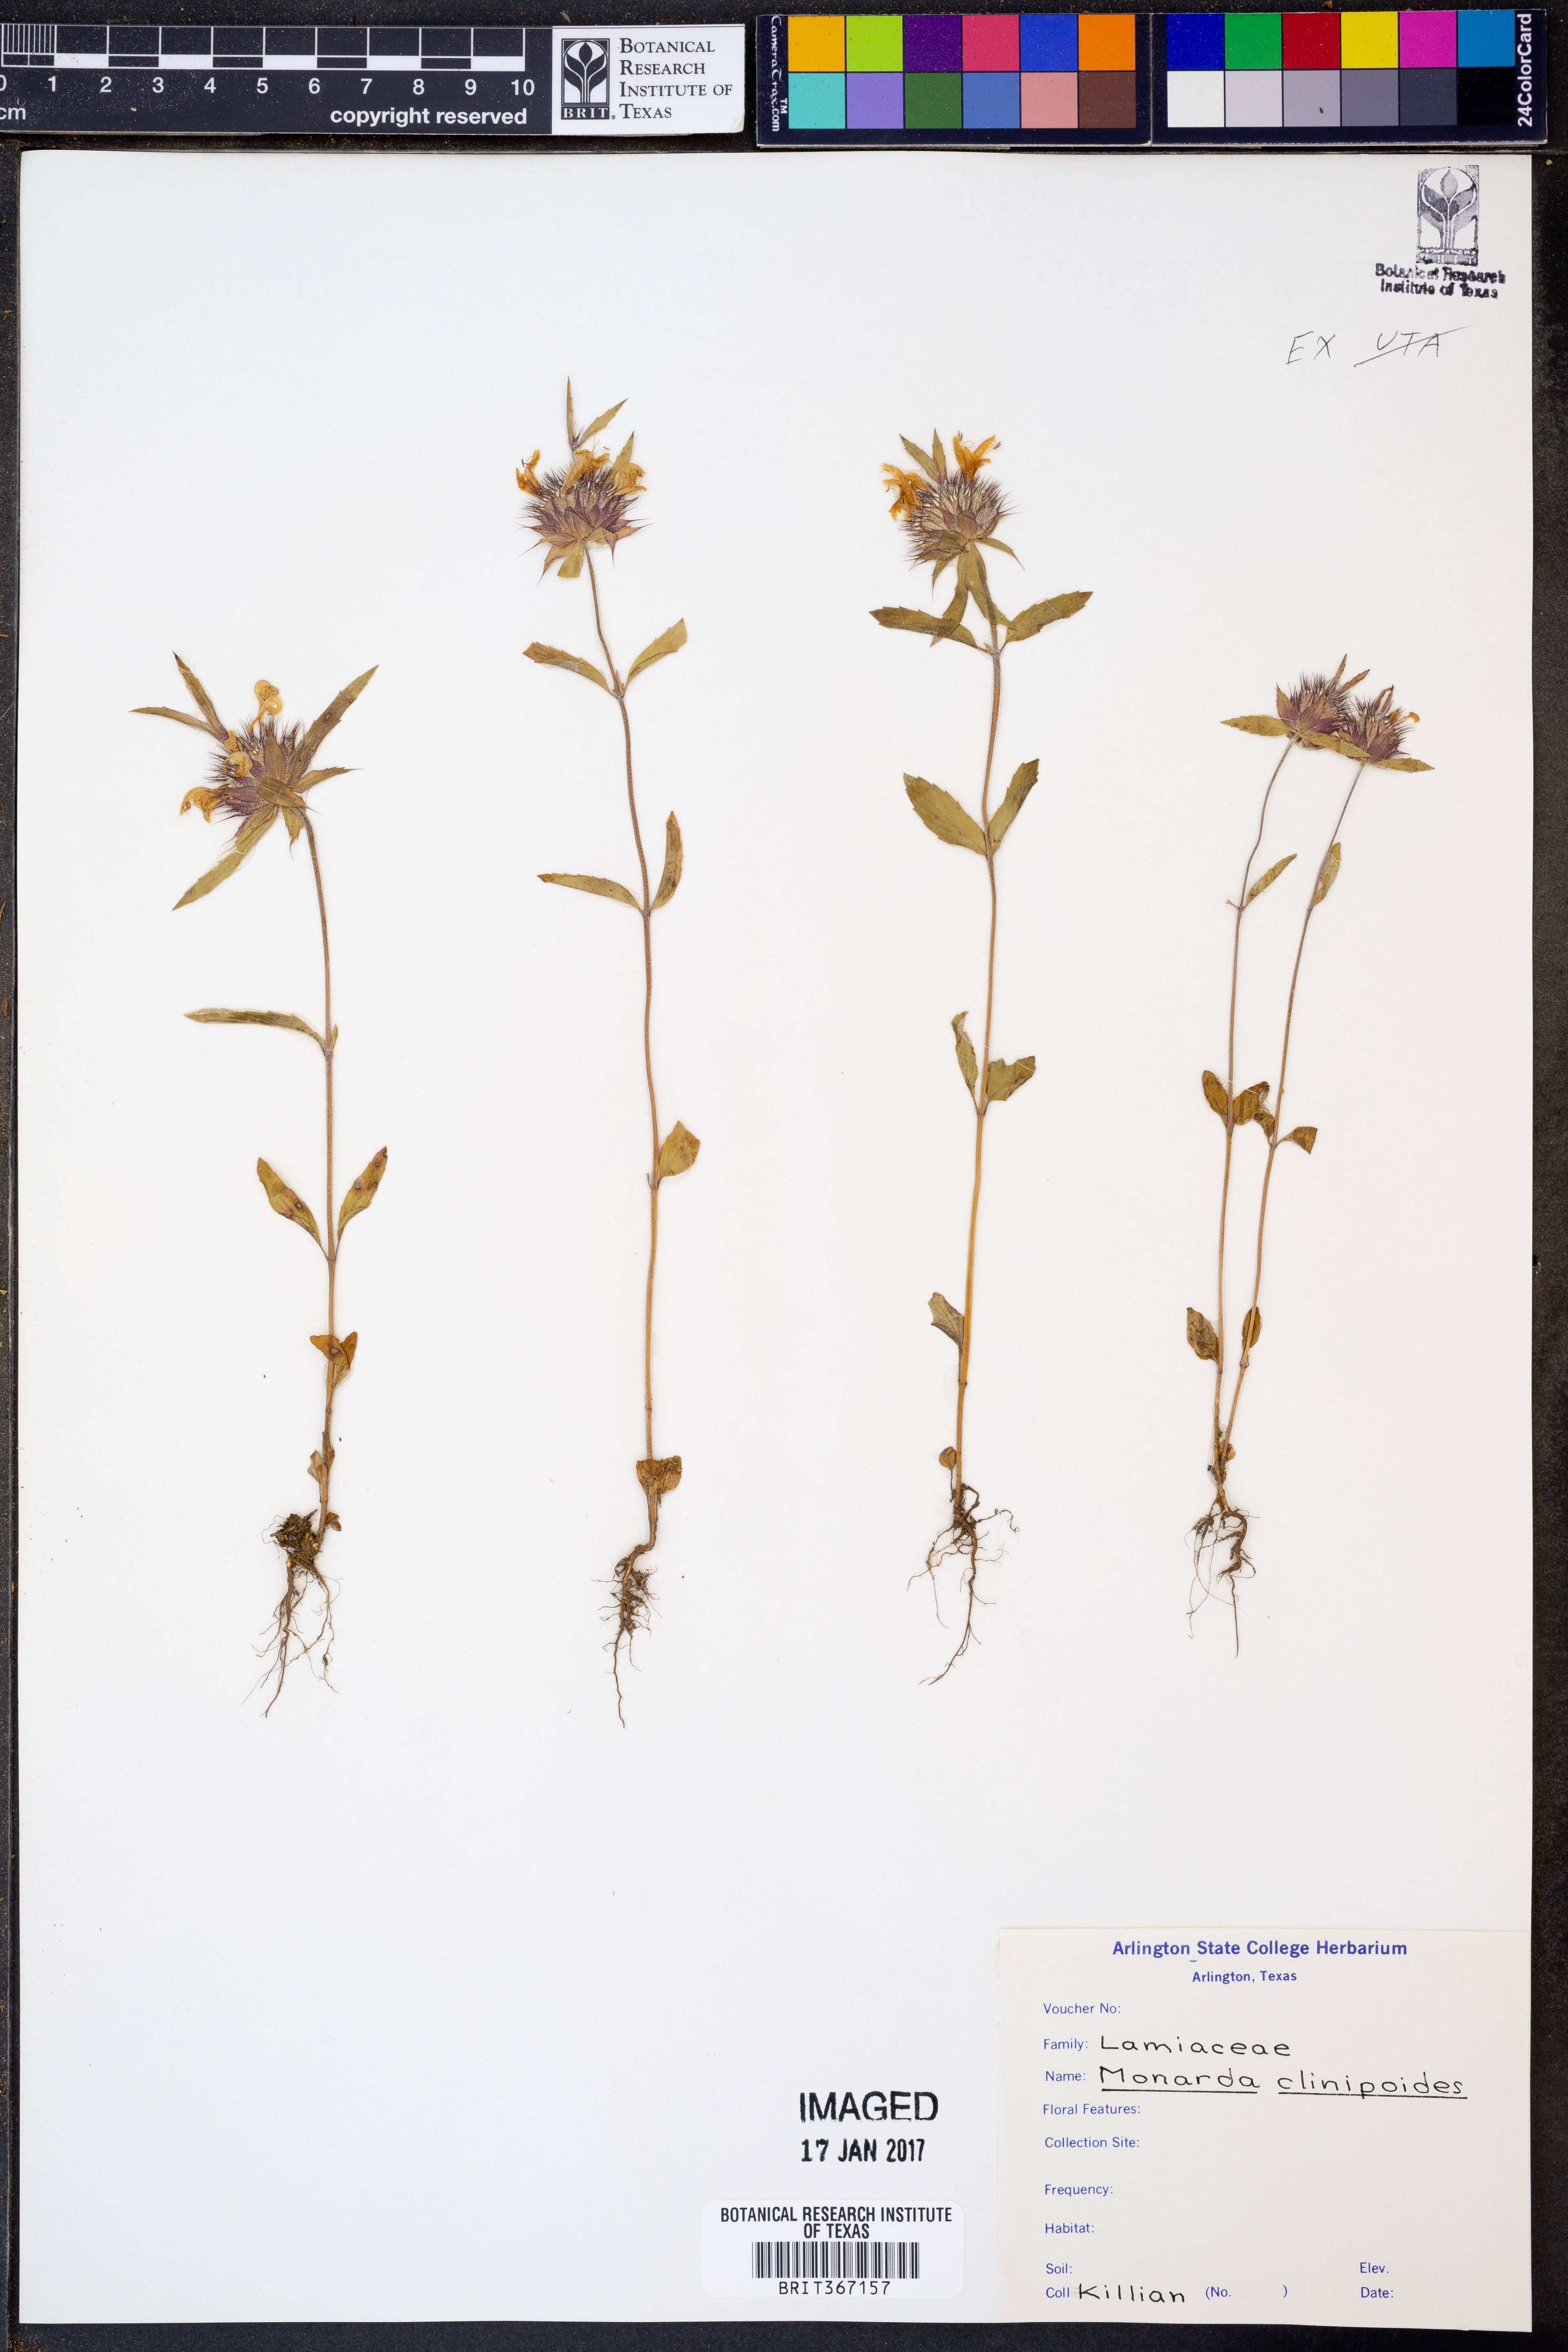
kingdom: Plantae
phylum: Tracheophyta
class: Magnoliopsida
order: Lamiales
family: Lamiaceae
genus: Monarda
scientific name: Monarda clinopodioides
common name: Basil beebalm
